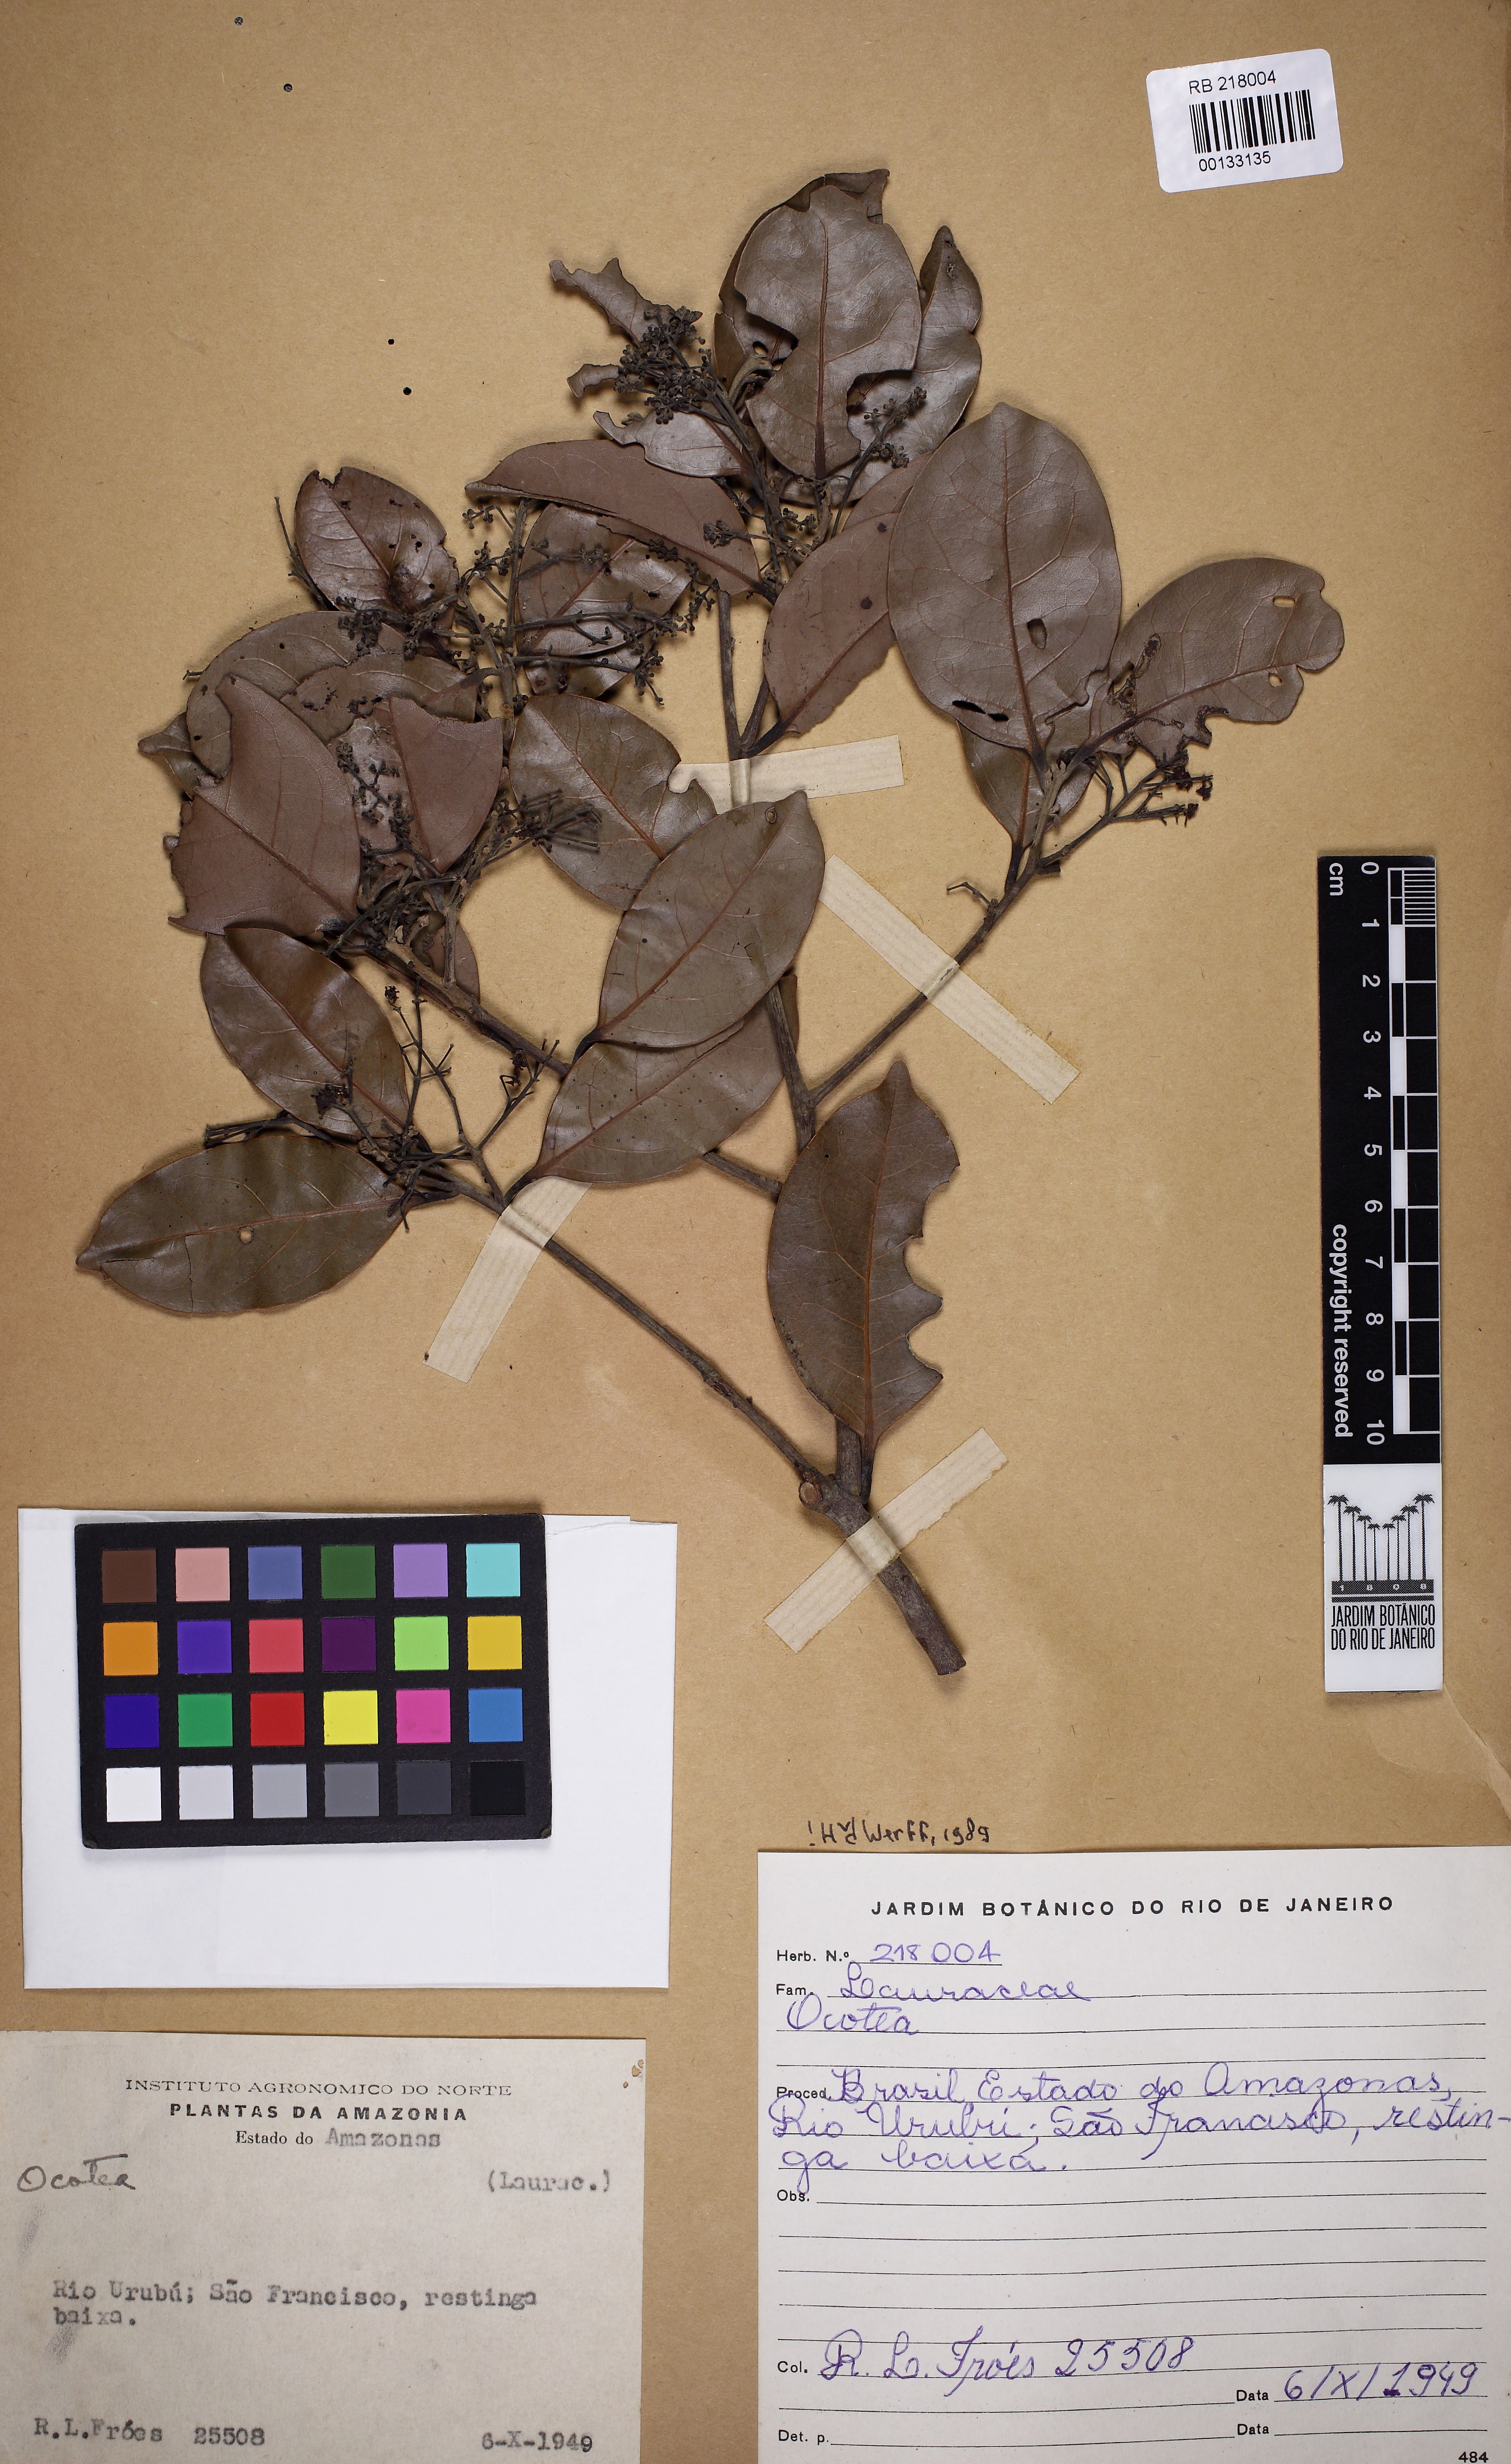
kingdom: Plantae
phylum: Tracheophyta
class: Magnoliopsida
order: Laurales
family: Lauraceae
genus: Ocotea
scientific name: Ocotea
